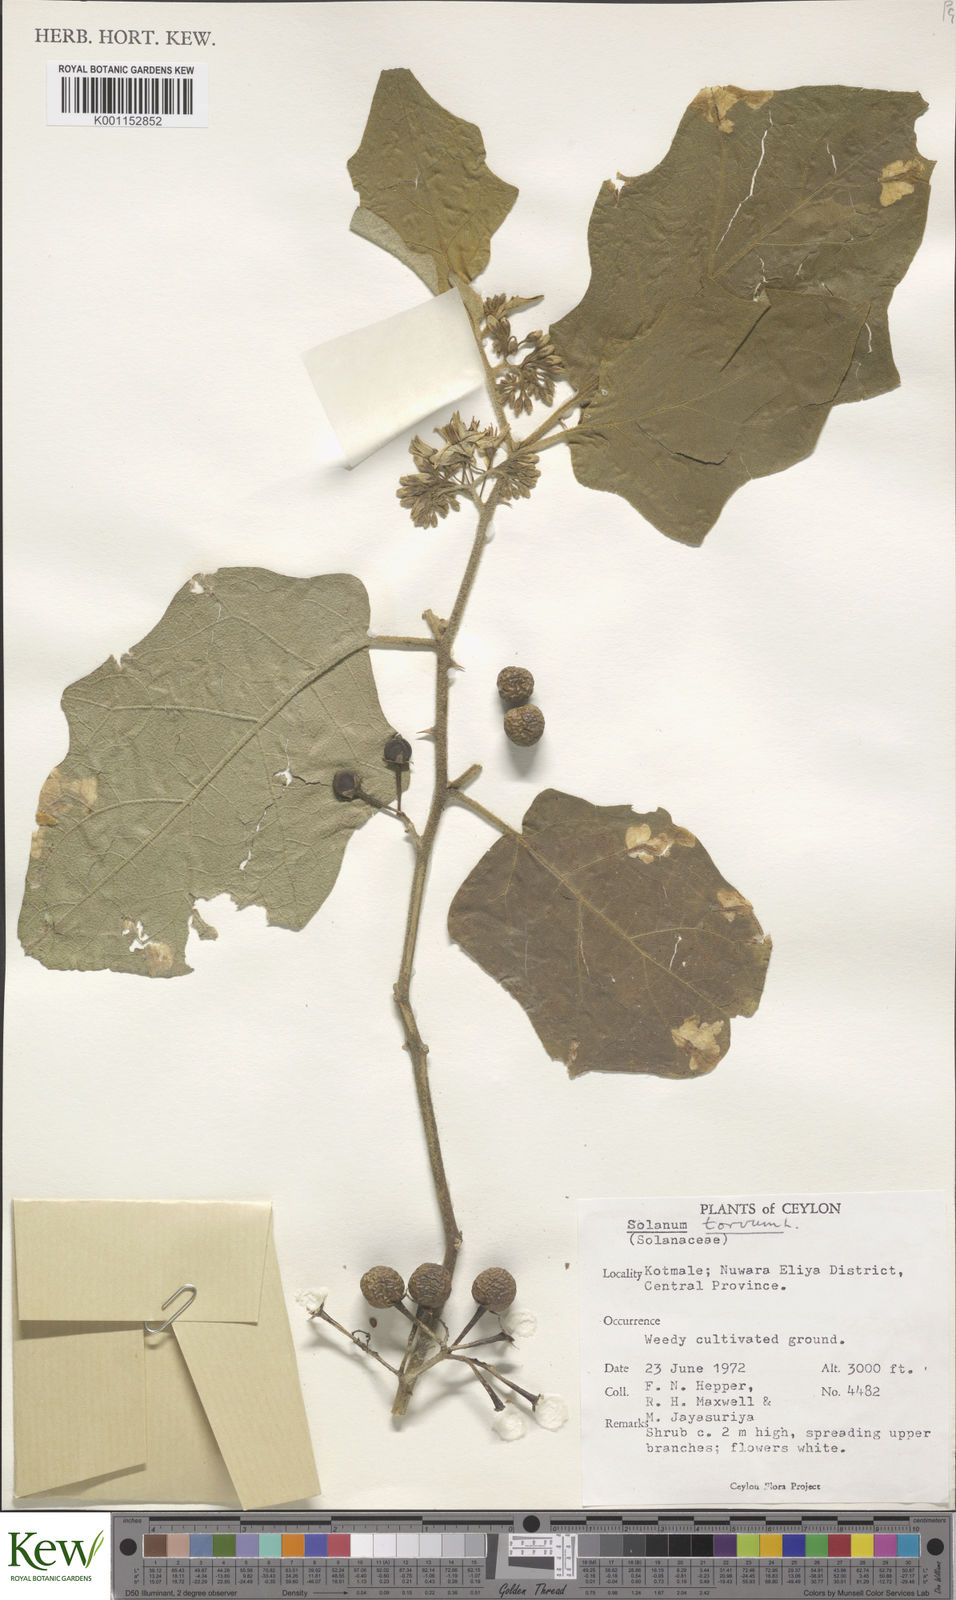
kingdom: Plantae
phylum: Tracheophyta
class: Magnoliopsida
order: Solanales
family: Solanaceae
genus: Solanum
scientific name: Solanum torvum
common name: Turkey berry
